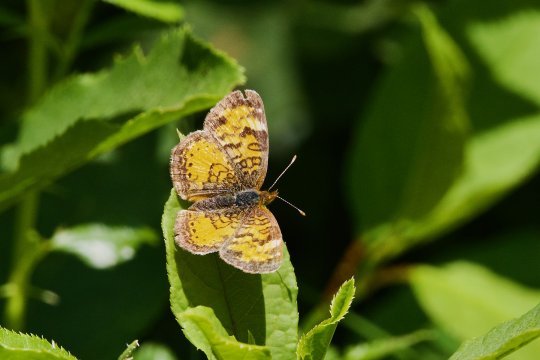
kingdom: Animalia
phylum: Arthropoda
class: Insecta
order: Lepidoptera
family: Nymphalidae
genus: Phyciodes
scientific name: Phyciodes tharos
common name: Northern Crescent
